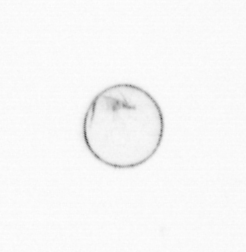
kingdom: Chromista
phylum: Myzozoa
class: Dinophyceae
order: Noctilucales
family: Noctilucaceae
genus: Noctiluca
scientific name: Noctiluca scintillans
